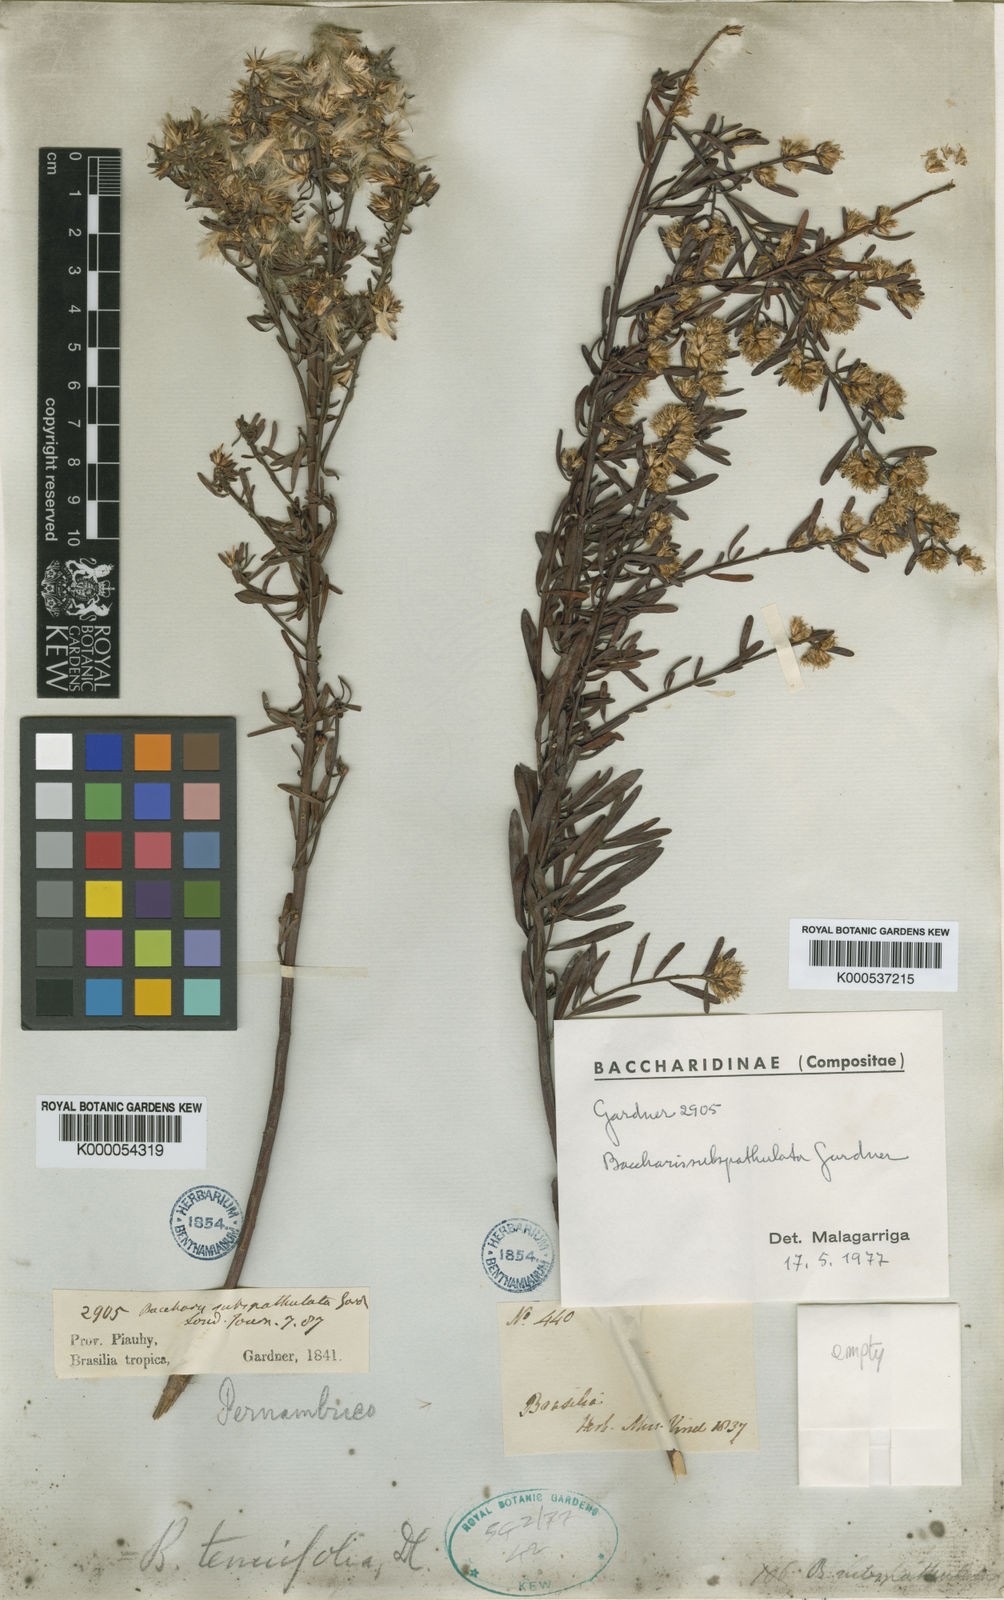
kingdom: Plantae
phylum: Tracheophyta
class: Magnoliopsida
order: Asterales
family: Asteraceae
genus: Baccharis
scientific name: Baccharis linearifolia
